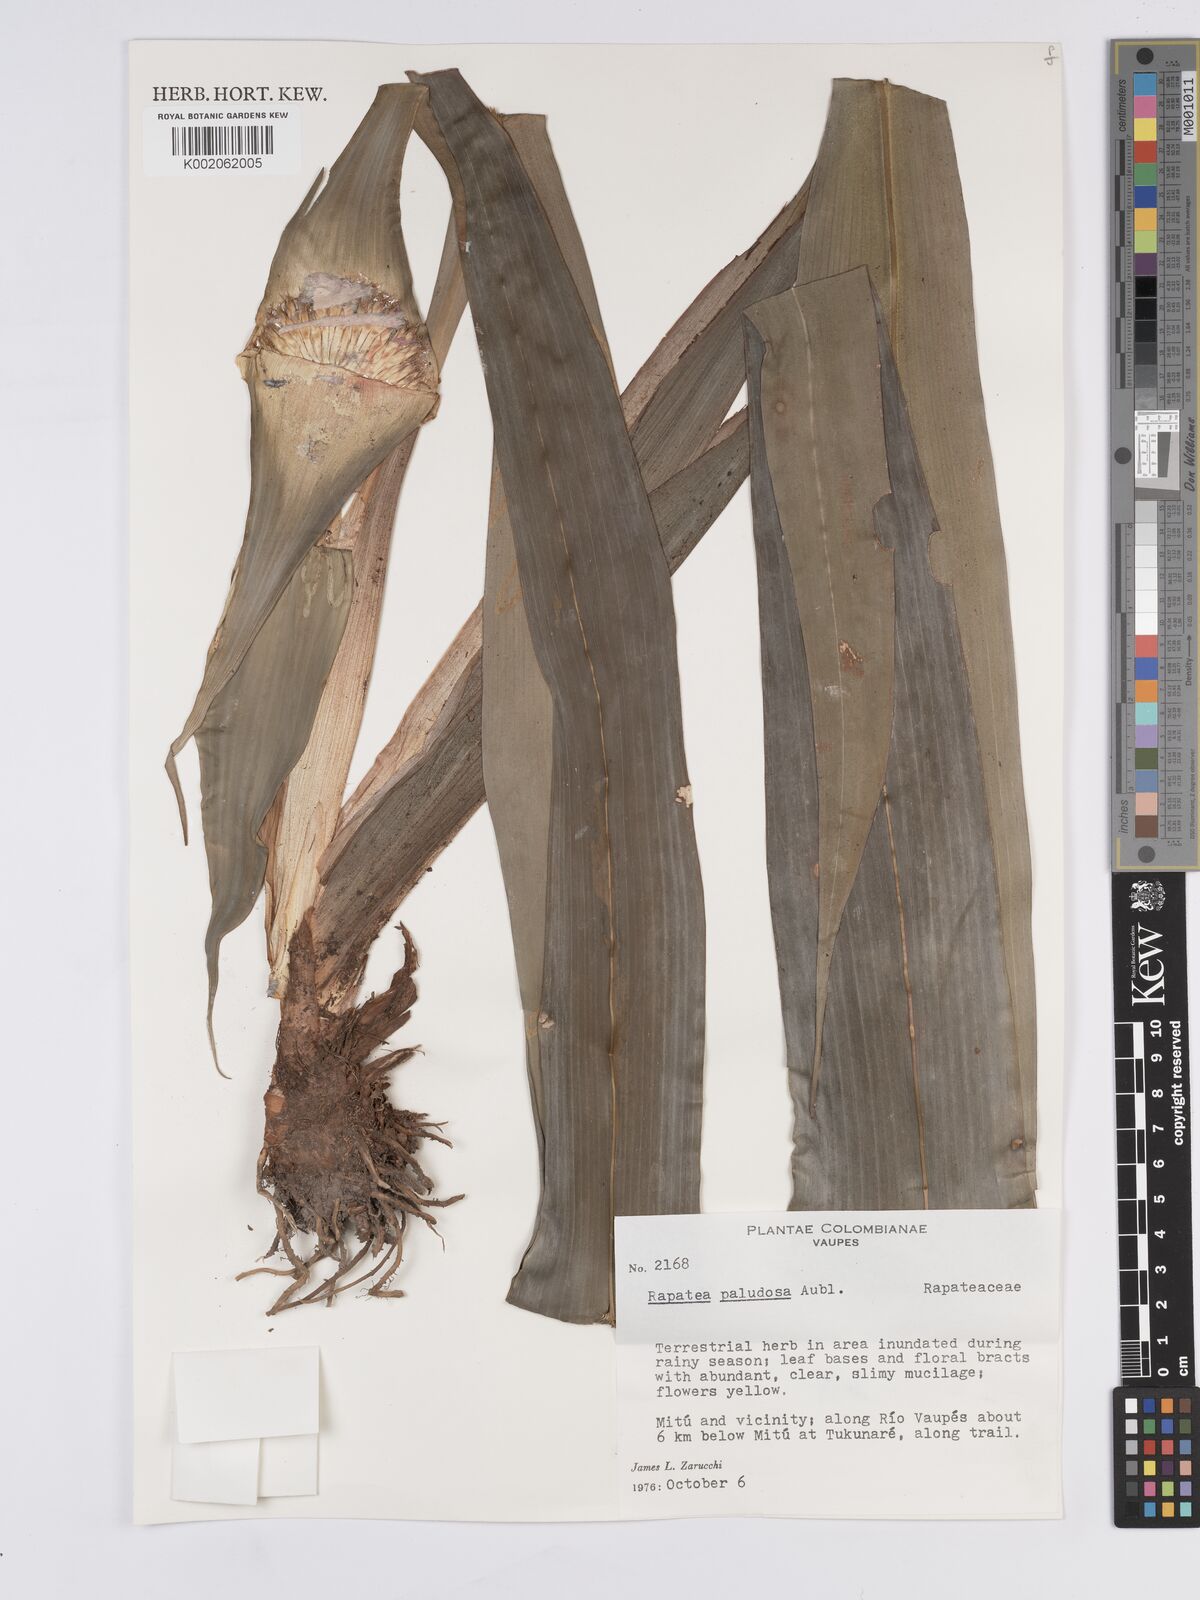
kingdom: Plantae
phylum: Tracheophyta
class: Liliopsida
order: Poales
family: Rapateaceae
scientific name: Rapateaceae
